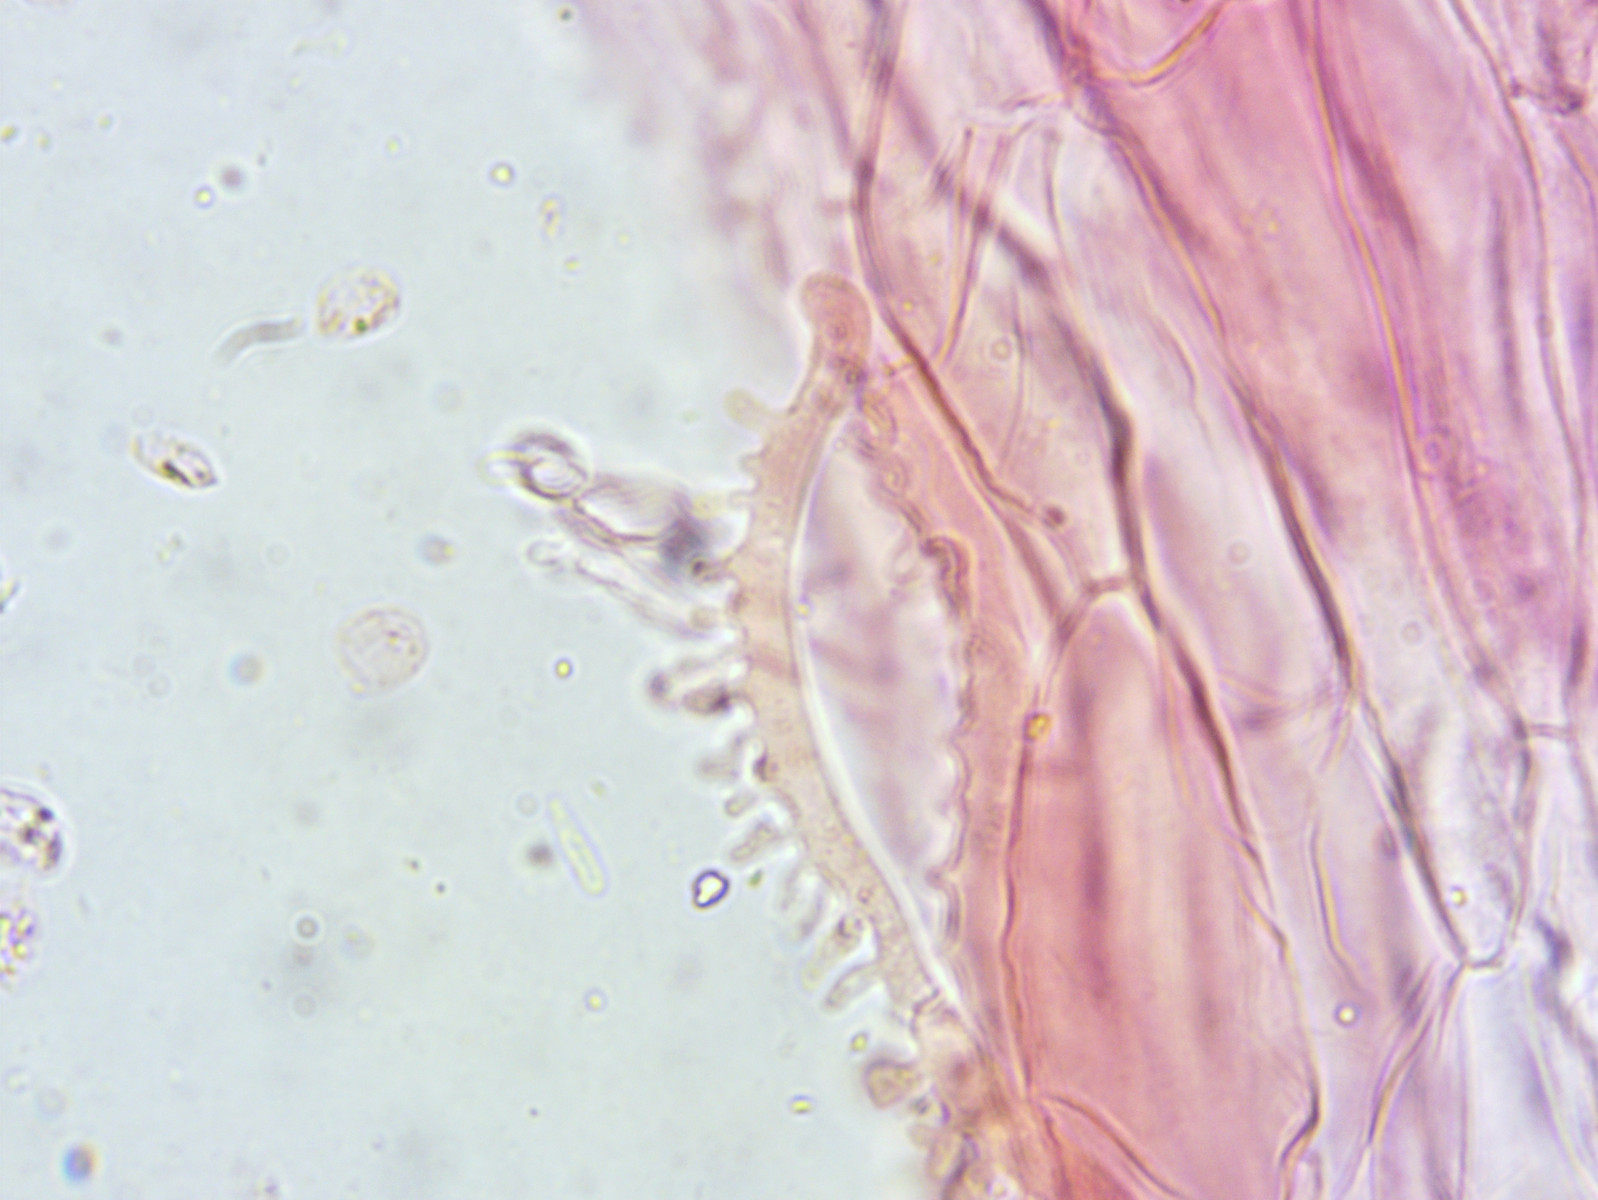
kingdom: Fungi
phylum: Basidiomycota
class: Agaricomycetes
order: Agaricales
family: Porotheleaceae
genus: Phloeomana
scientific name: Phloeomana hiemalis
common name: sen huesvamp
